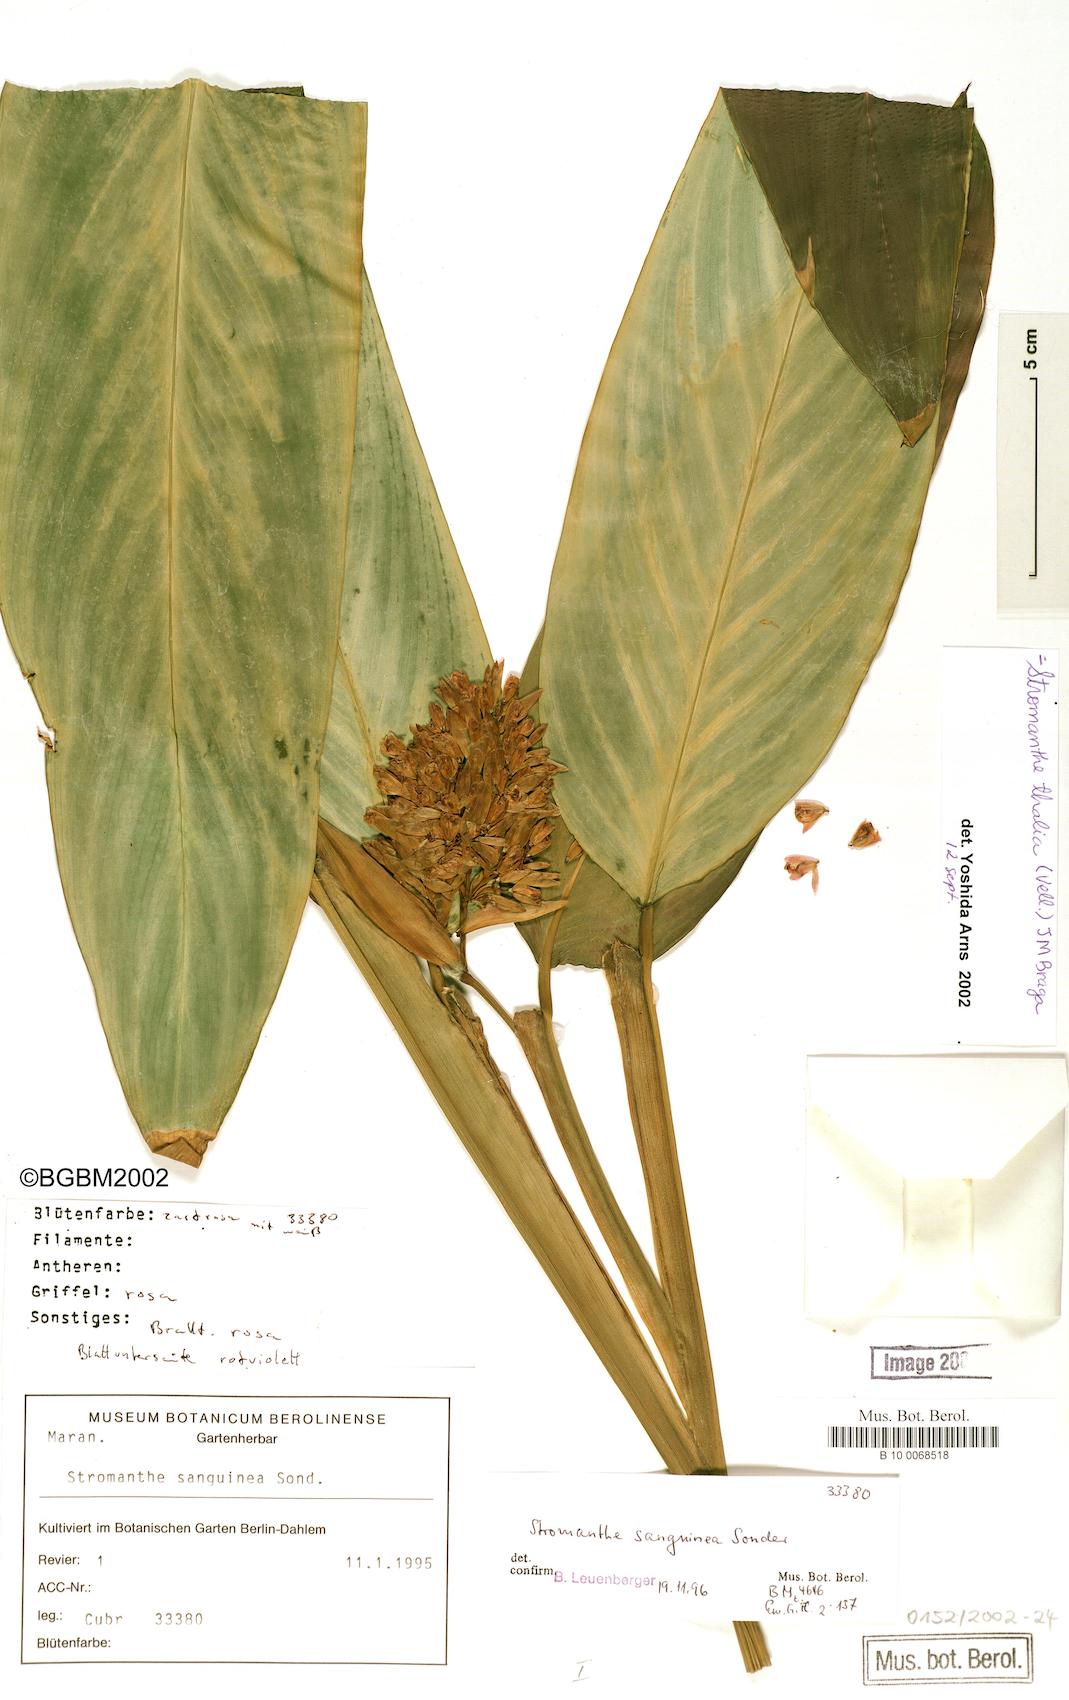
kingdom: Plantae
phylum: Tracheophyta
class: Liliopsida
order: Zingiberales
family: Marantaceae
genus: Stromanthe
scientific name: Stromanthe thalia
